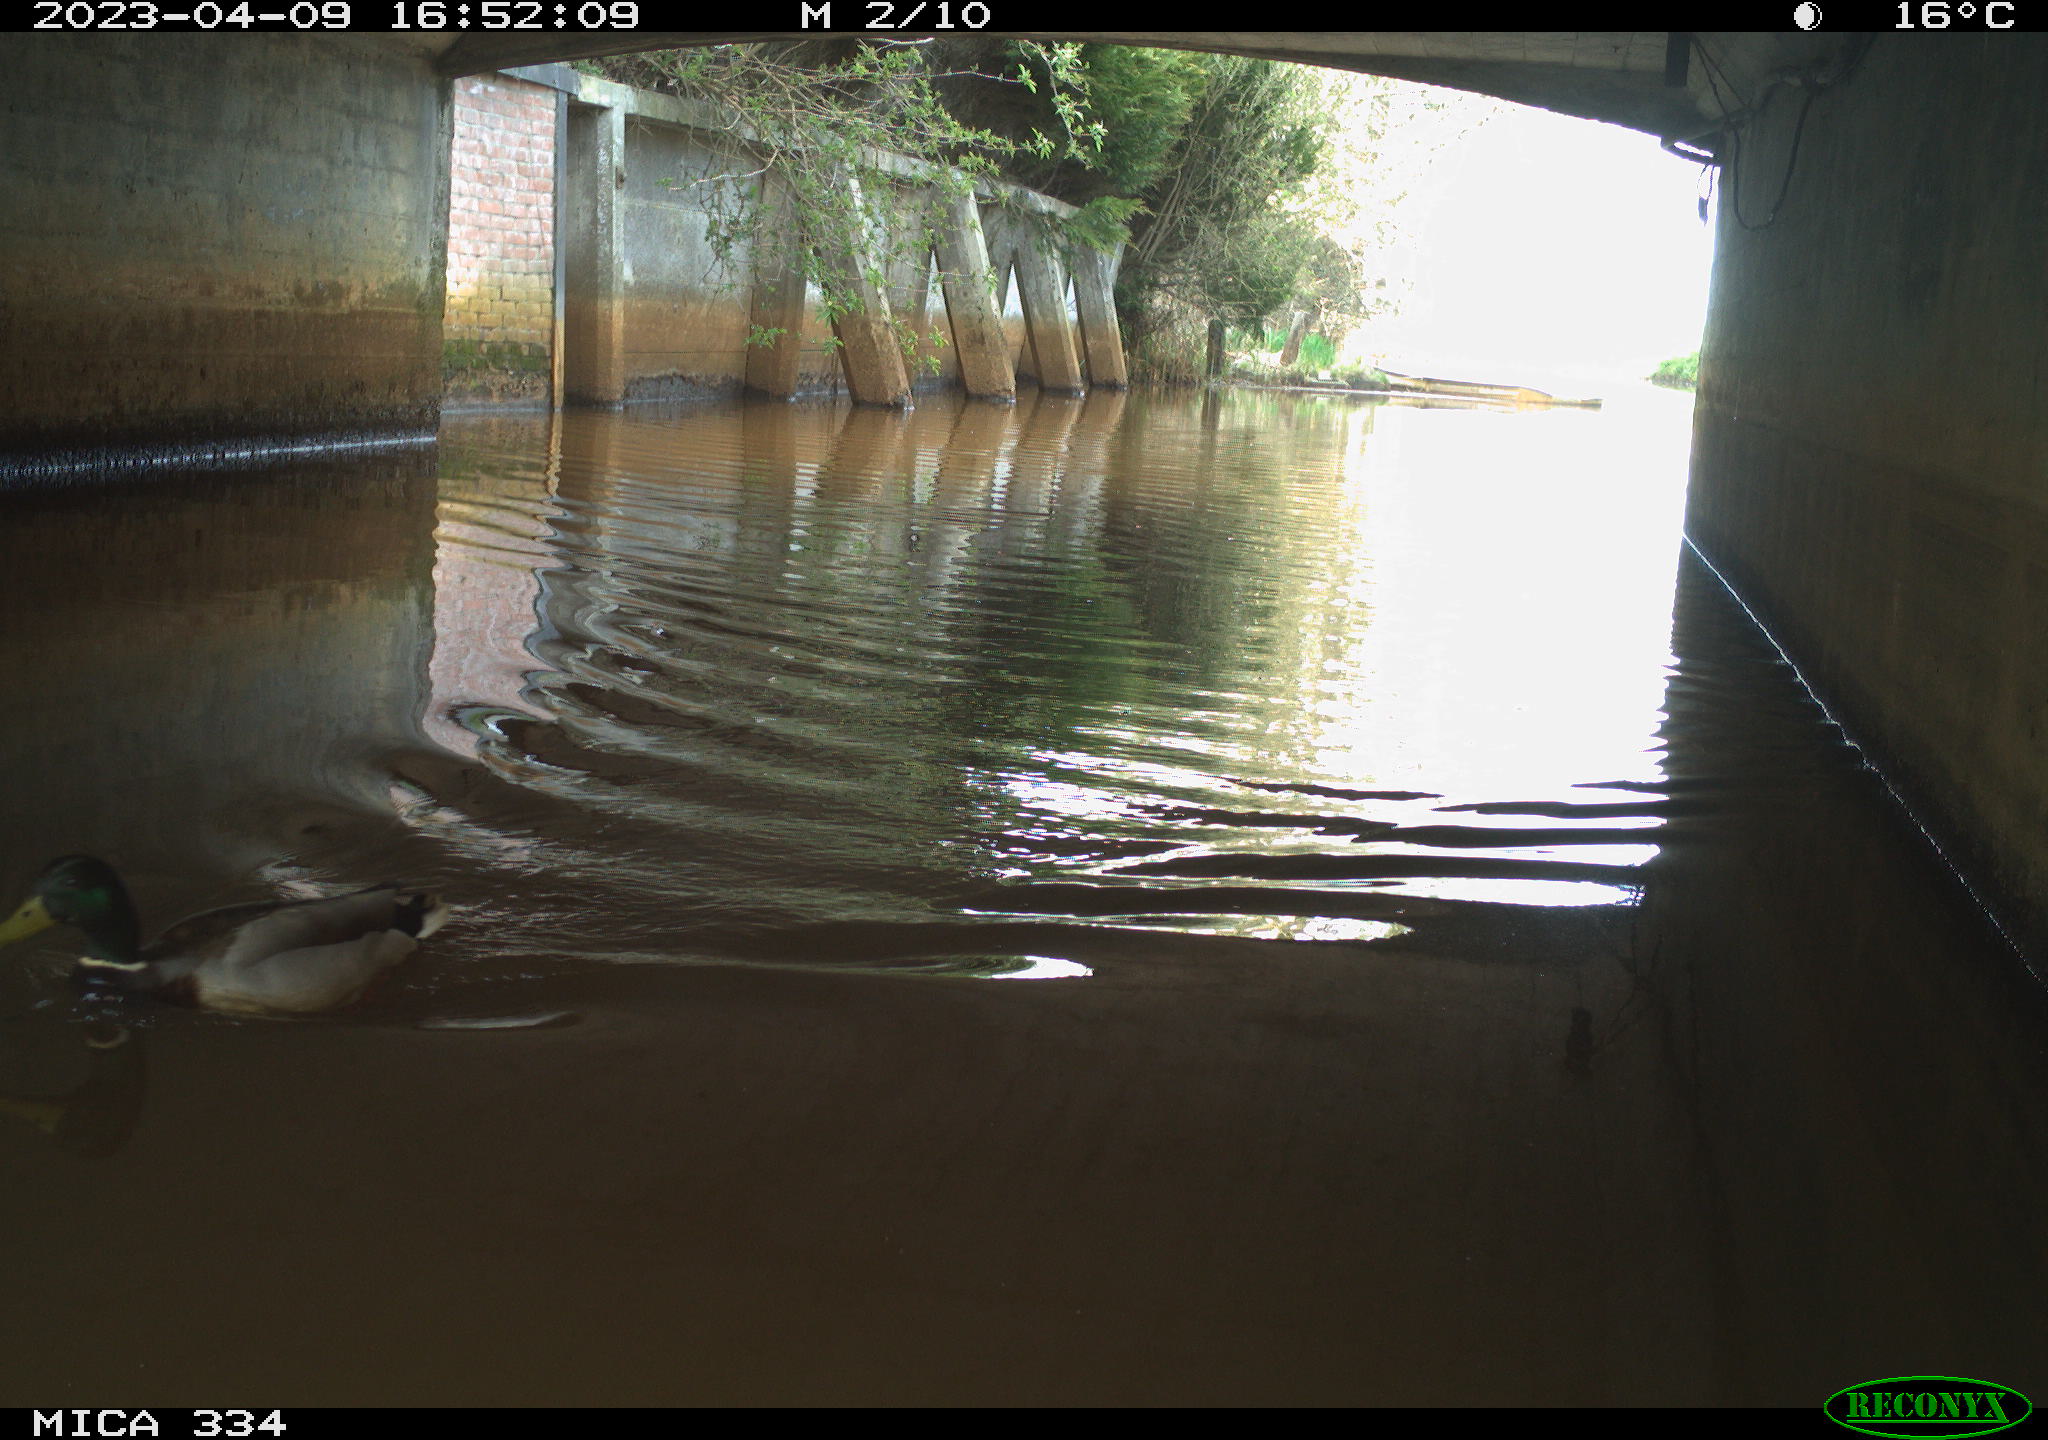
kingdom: Animalia
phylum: Chordata
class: Aves
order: Anseriformes
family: Anatidae
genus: Anas
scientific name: Anas
